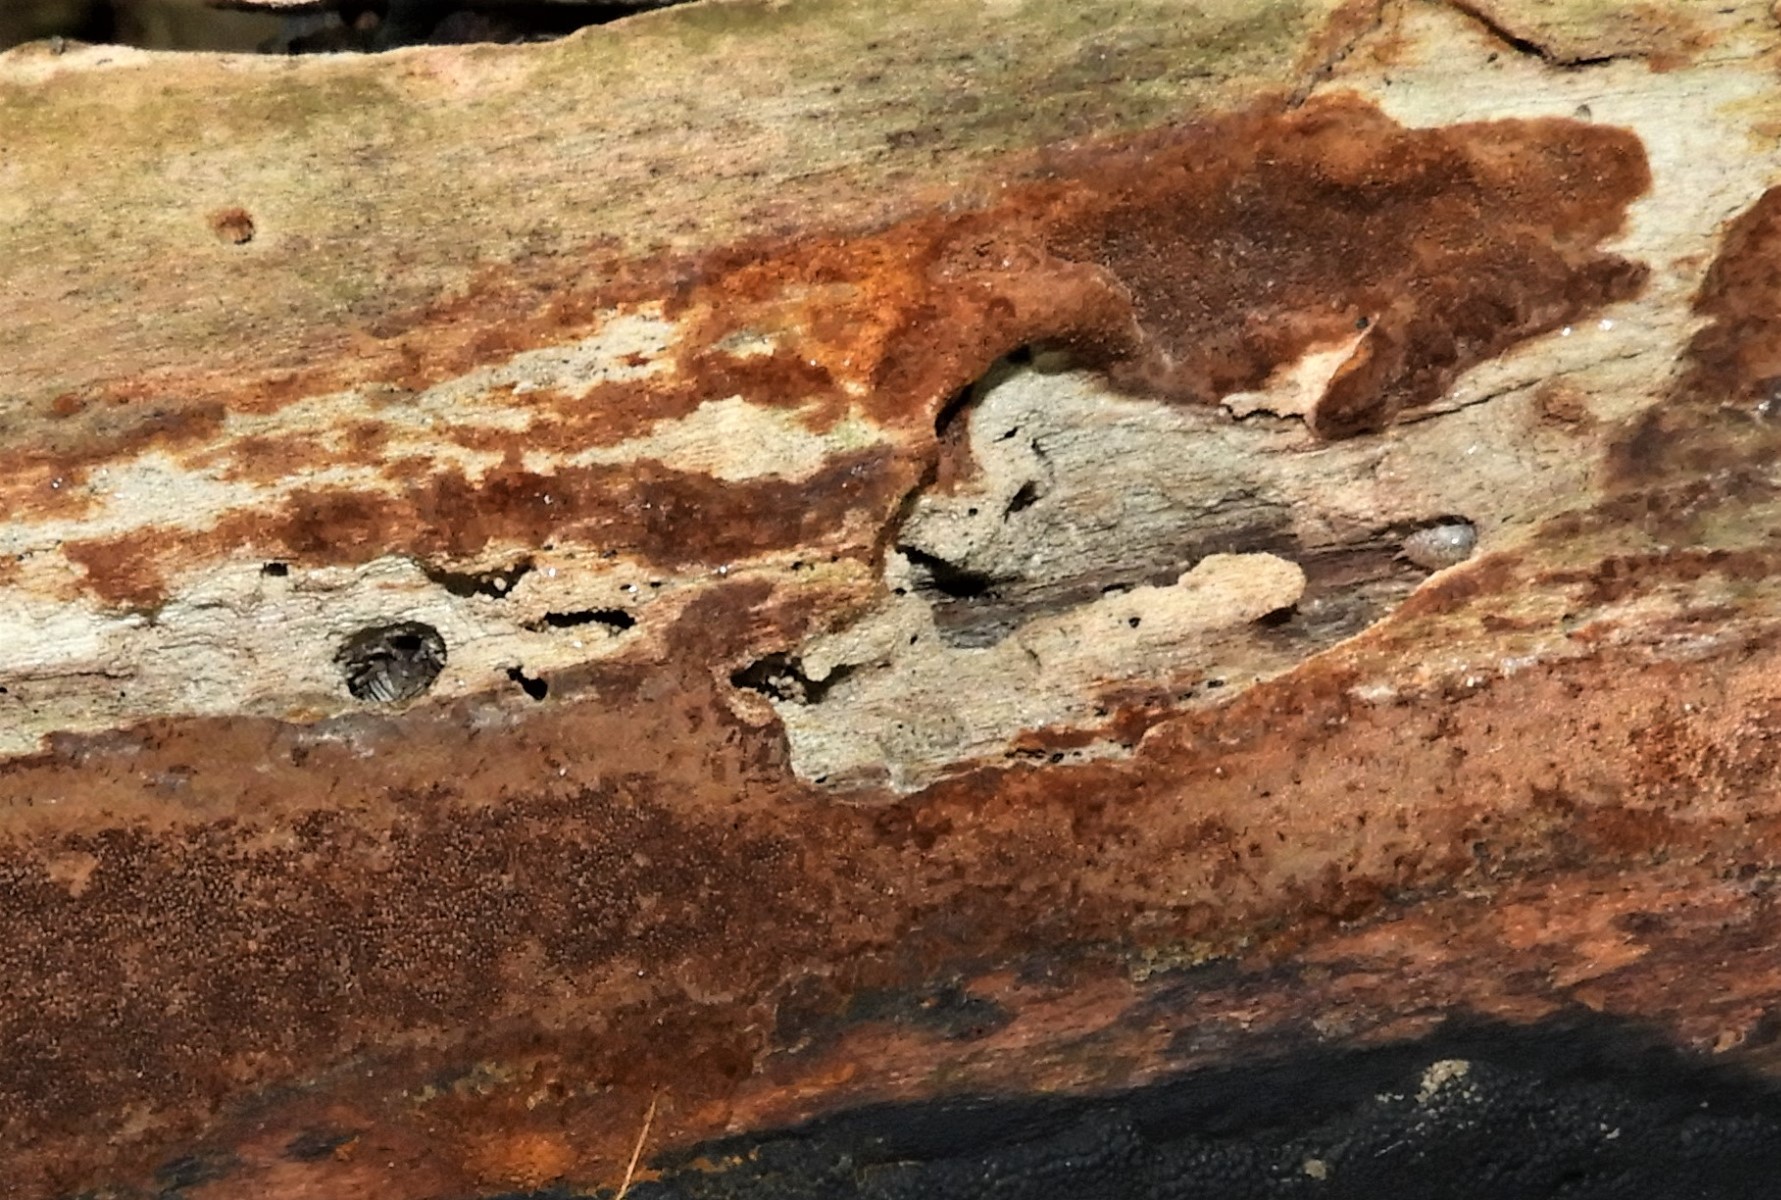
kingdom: Fungi
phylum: Basidiomycota
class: Agaricomycetes
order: Hymenochaetales
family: Hymenochaetaceae
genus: Fuscoporia
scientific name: Fuscoporia ferrea
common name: skorpe-ildporesvamp
